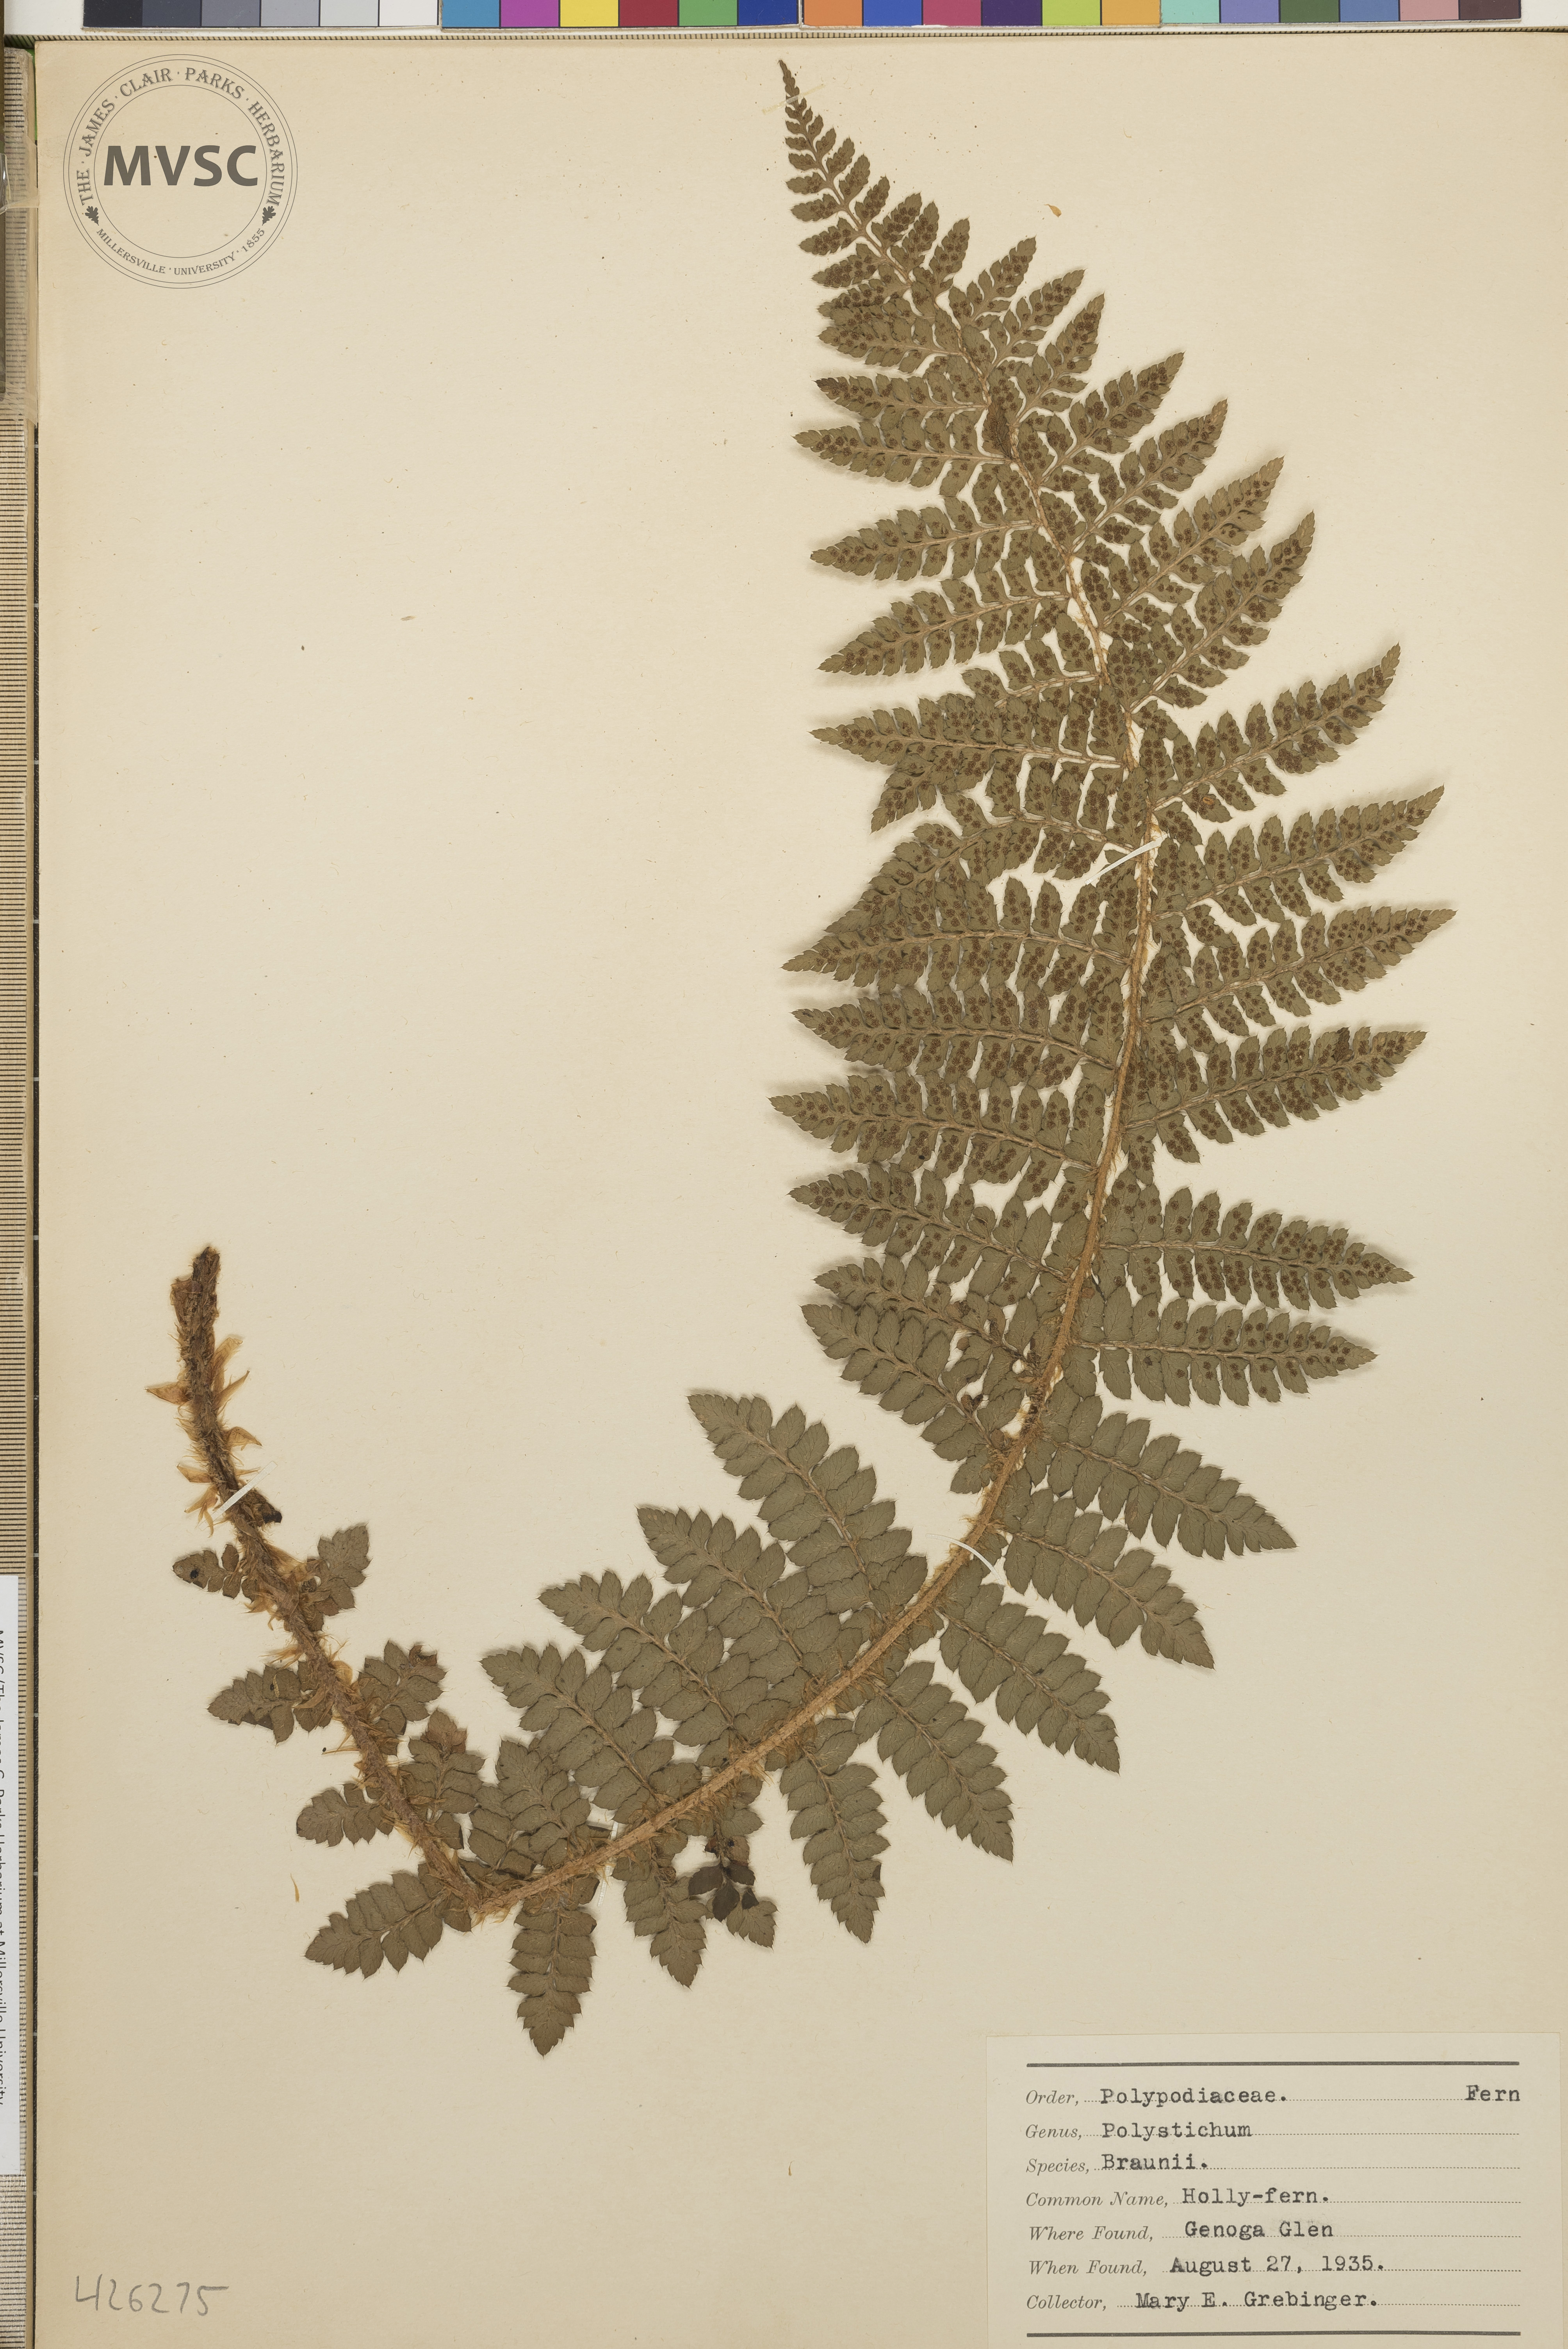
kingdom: Plantae
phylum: Tracheophyta
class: Polypodiopsida
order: Polypodiales
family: Dryopteridaceae
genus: Polystichum
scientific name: Polystichum braunii
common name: Holly fern
